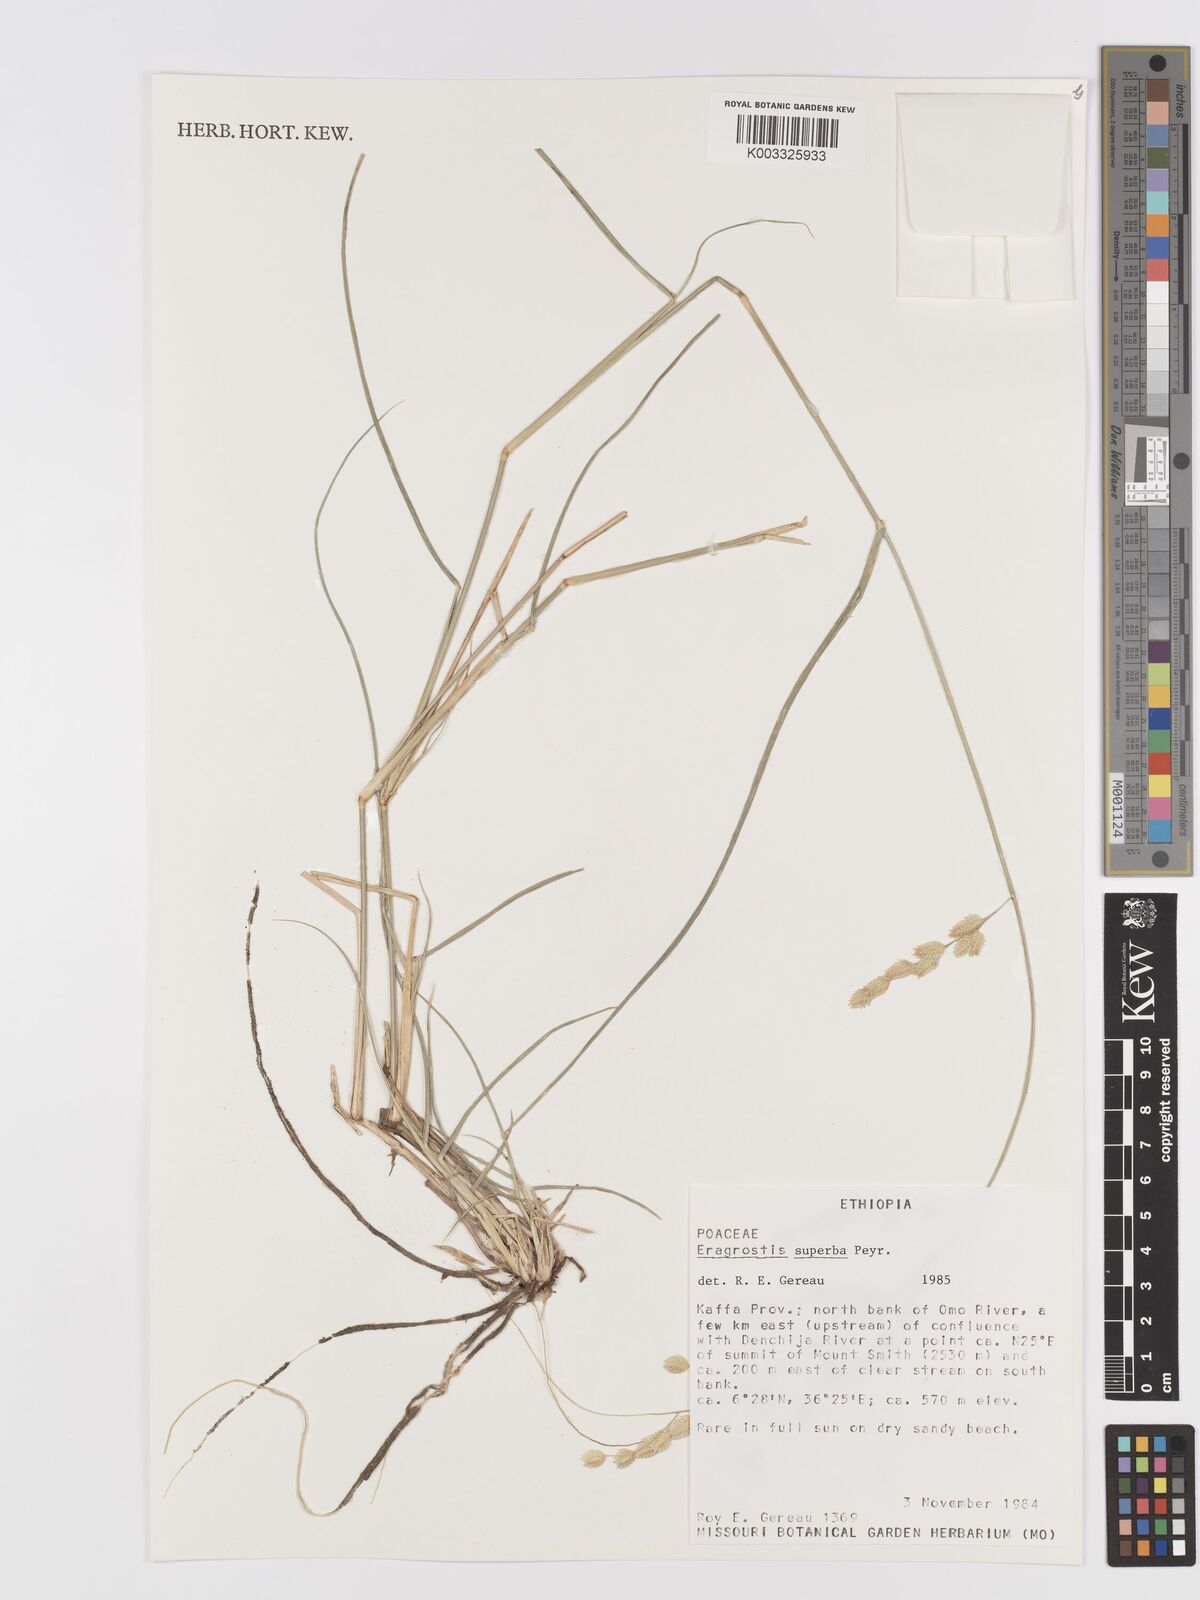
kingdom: Plantae
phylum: Tracheophyta
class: Liliopsida
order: Poales
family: Poaceae
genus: Eragrostis
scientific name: Eragrostis superba
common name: Wilman lovegrass
